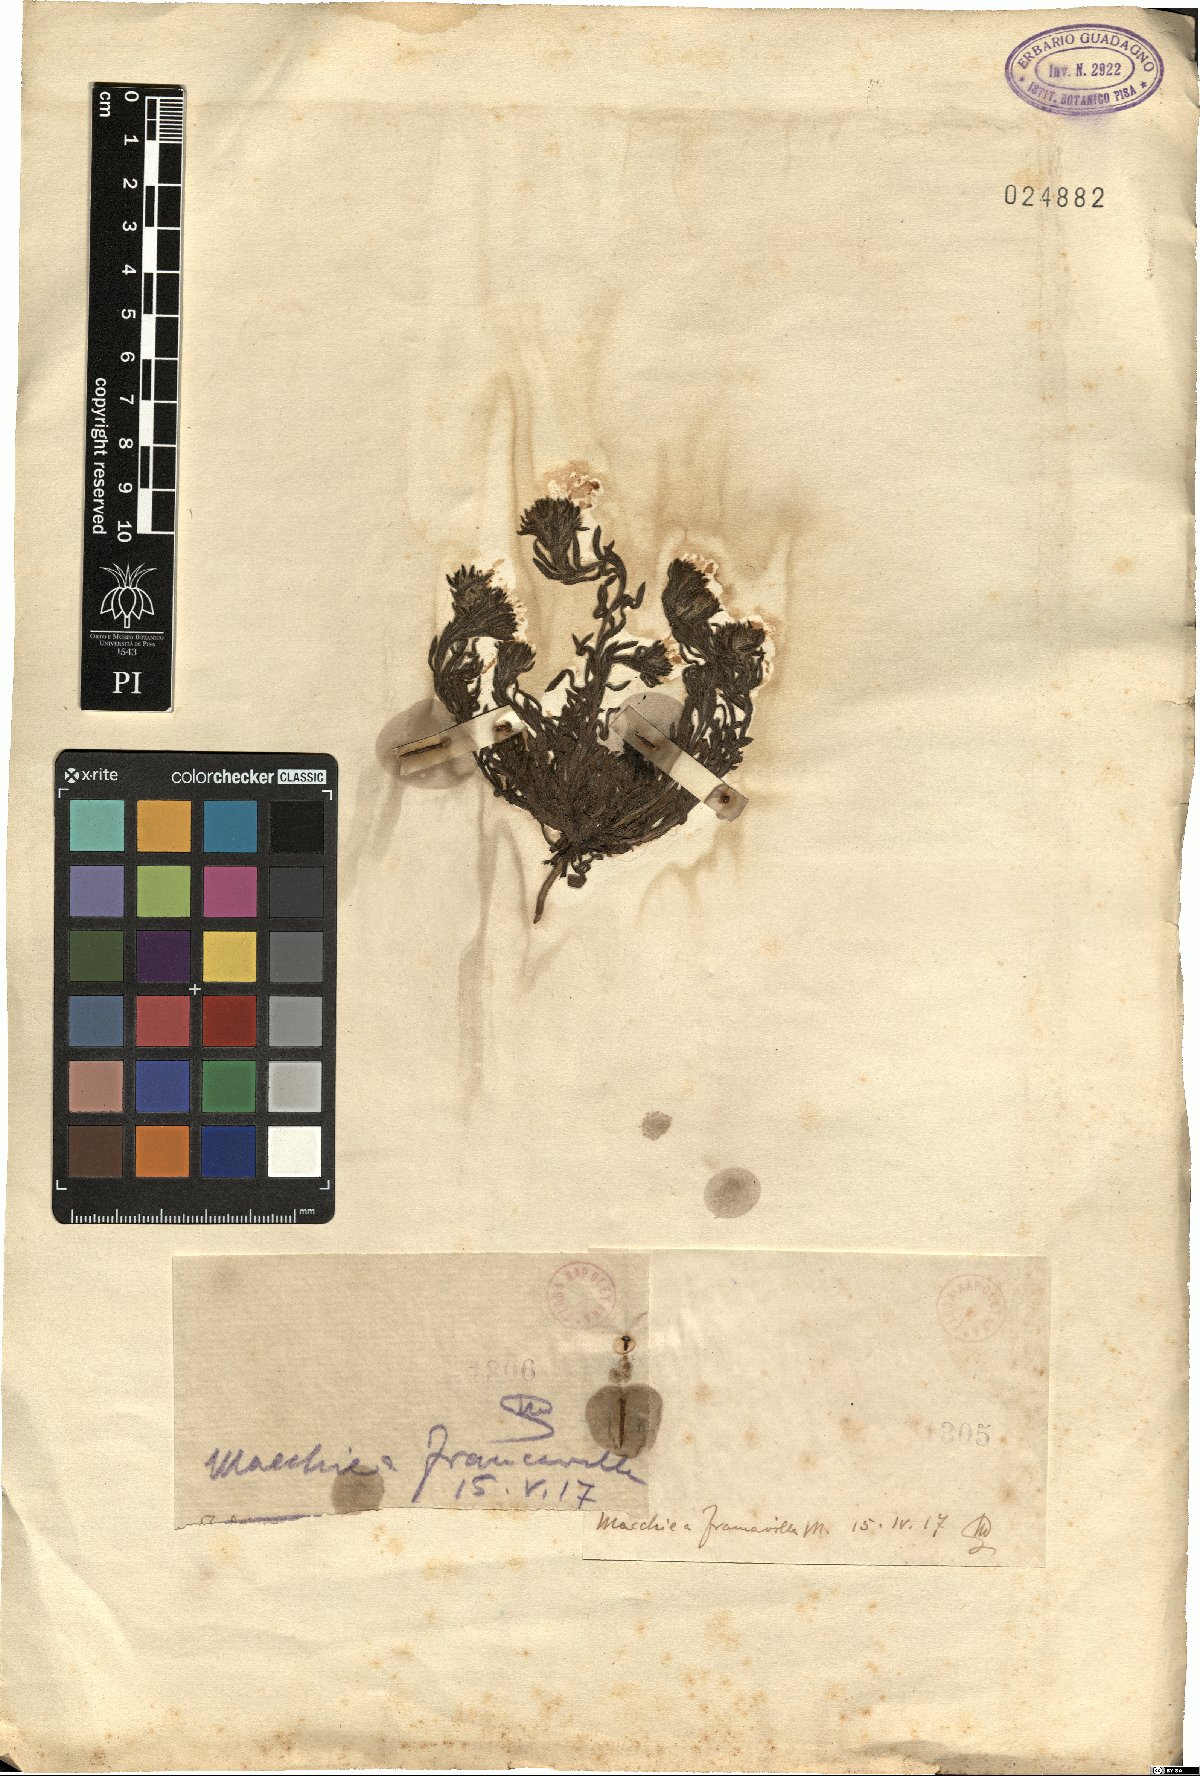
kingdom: Plantae
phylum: Tracheophyta
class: Magnoliopsida
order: Lamiales
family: Lamiaceae
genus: Ajuga
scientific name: Ajuga
